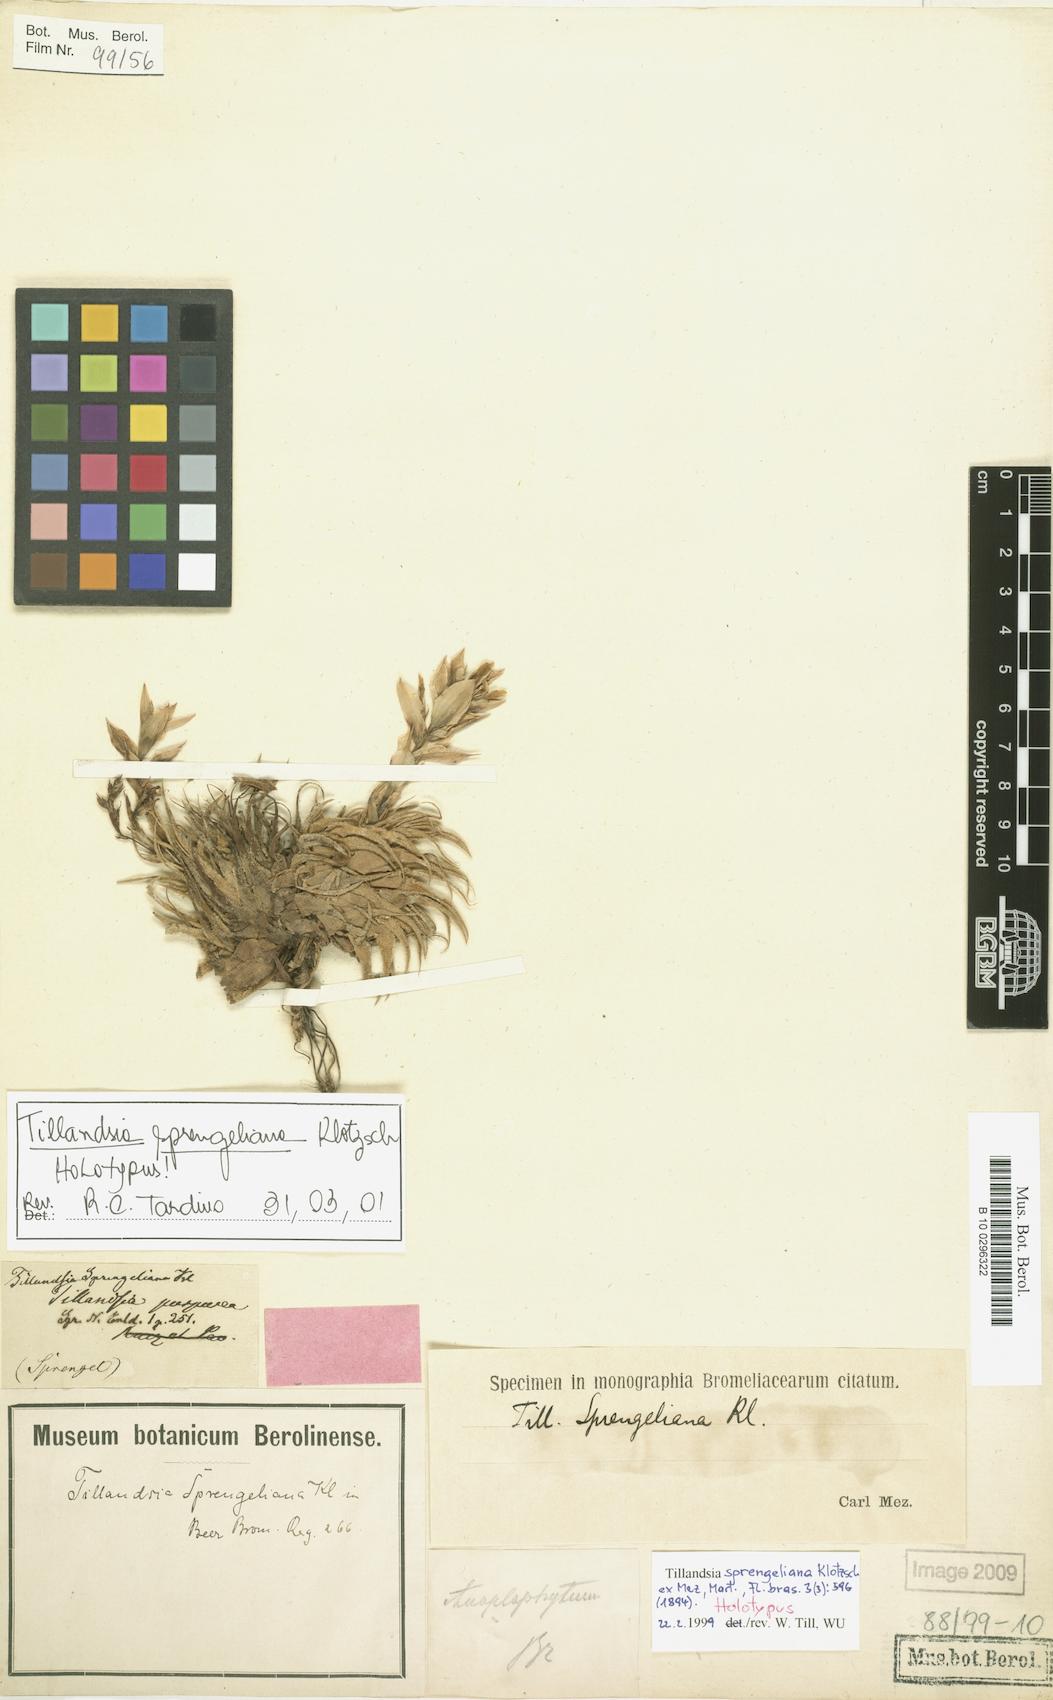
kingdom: Plantae
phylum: Tracheophyta
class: Liliopsida
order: Poales
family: Bromeliaceae
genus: Tillandsia
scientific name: Tillandsia sprengeliana
